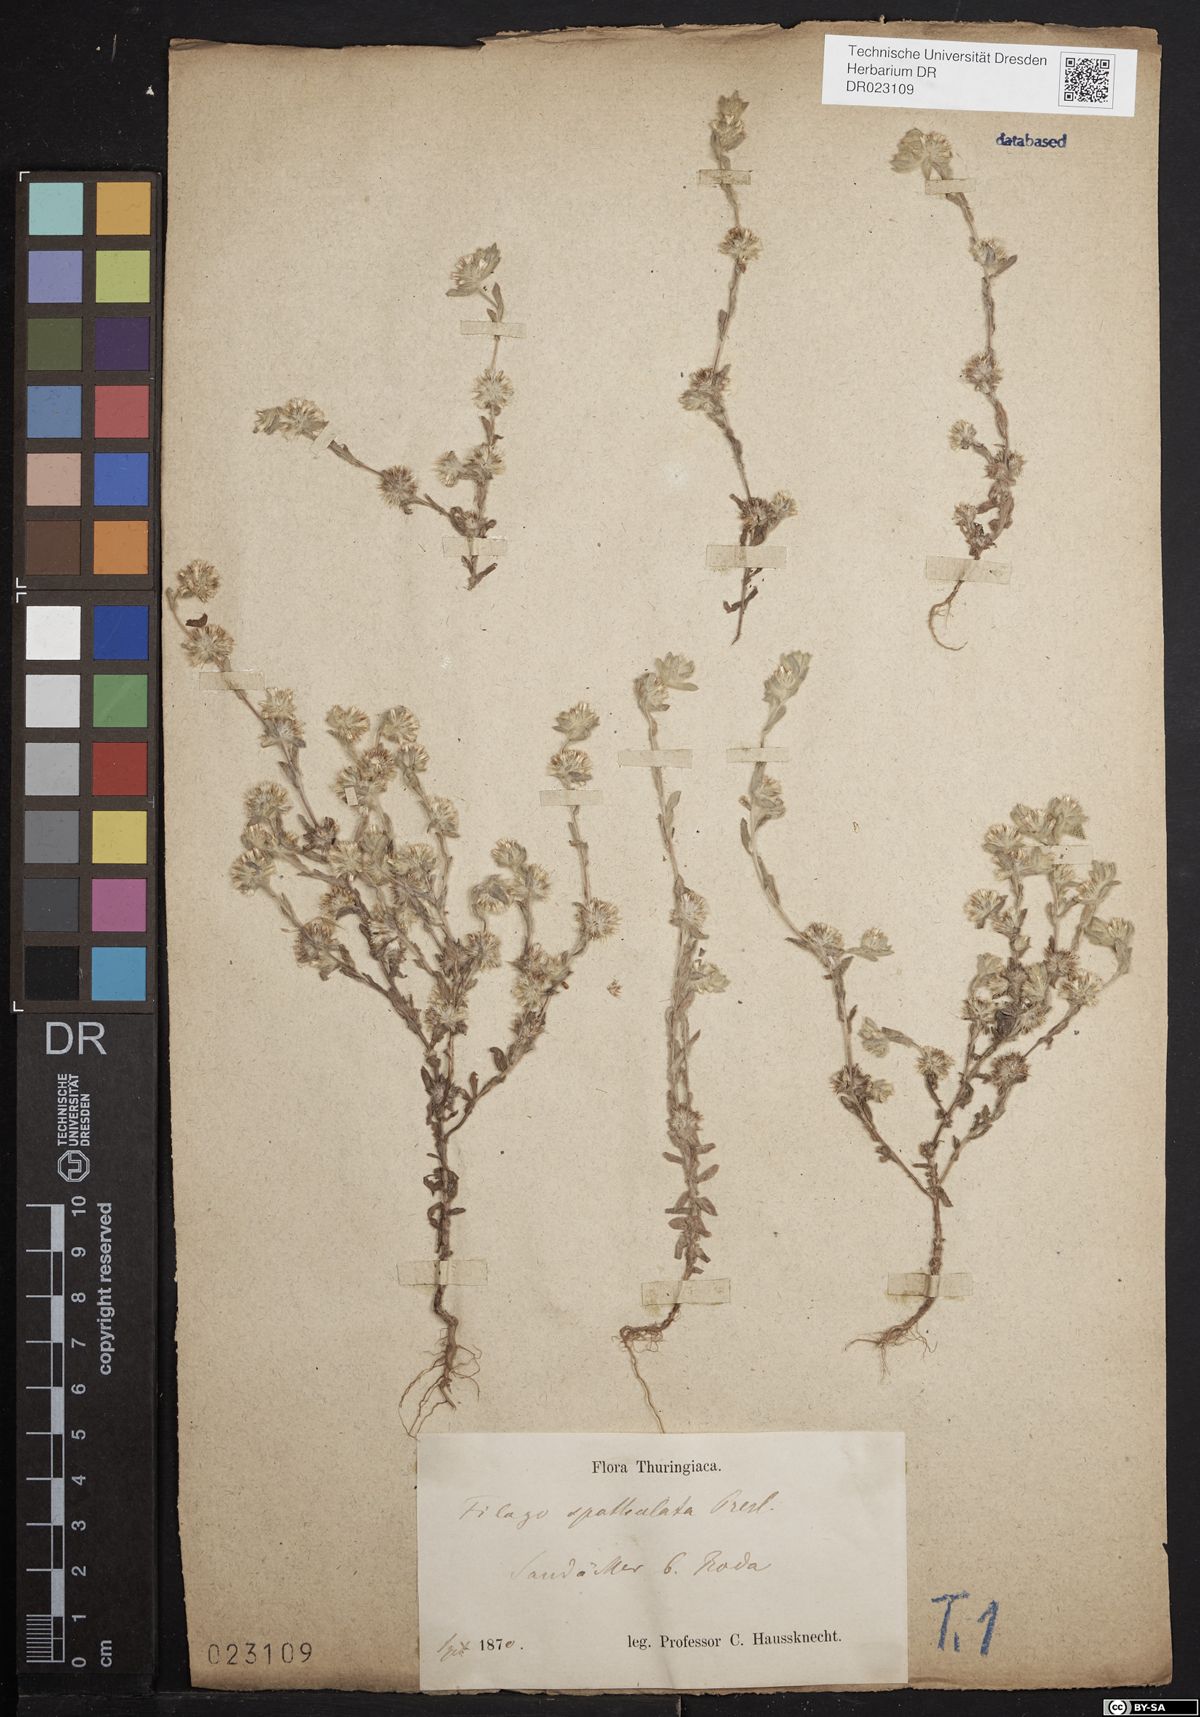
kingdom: Plantae
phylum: Tracheophyta
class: Magnoliopsida
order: Asterales
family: Asteraceae
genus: Filago
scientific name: Filago germanica
